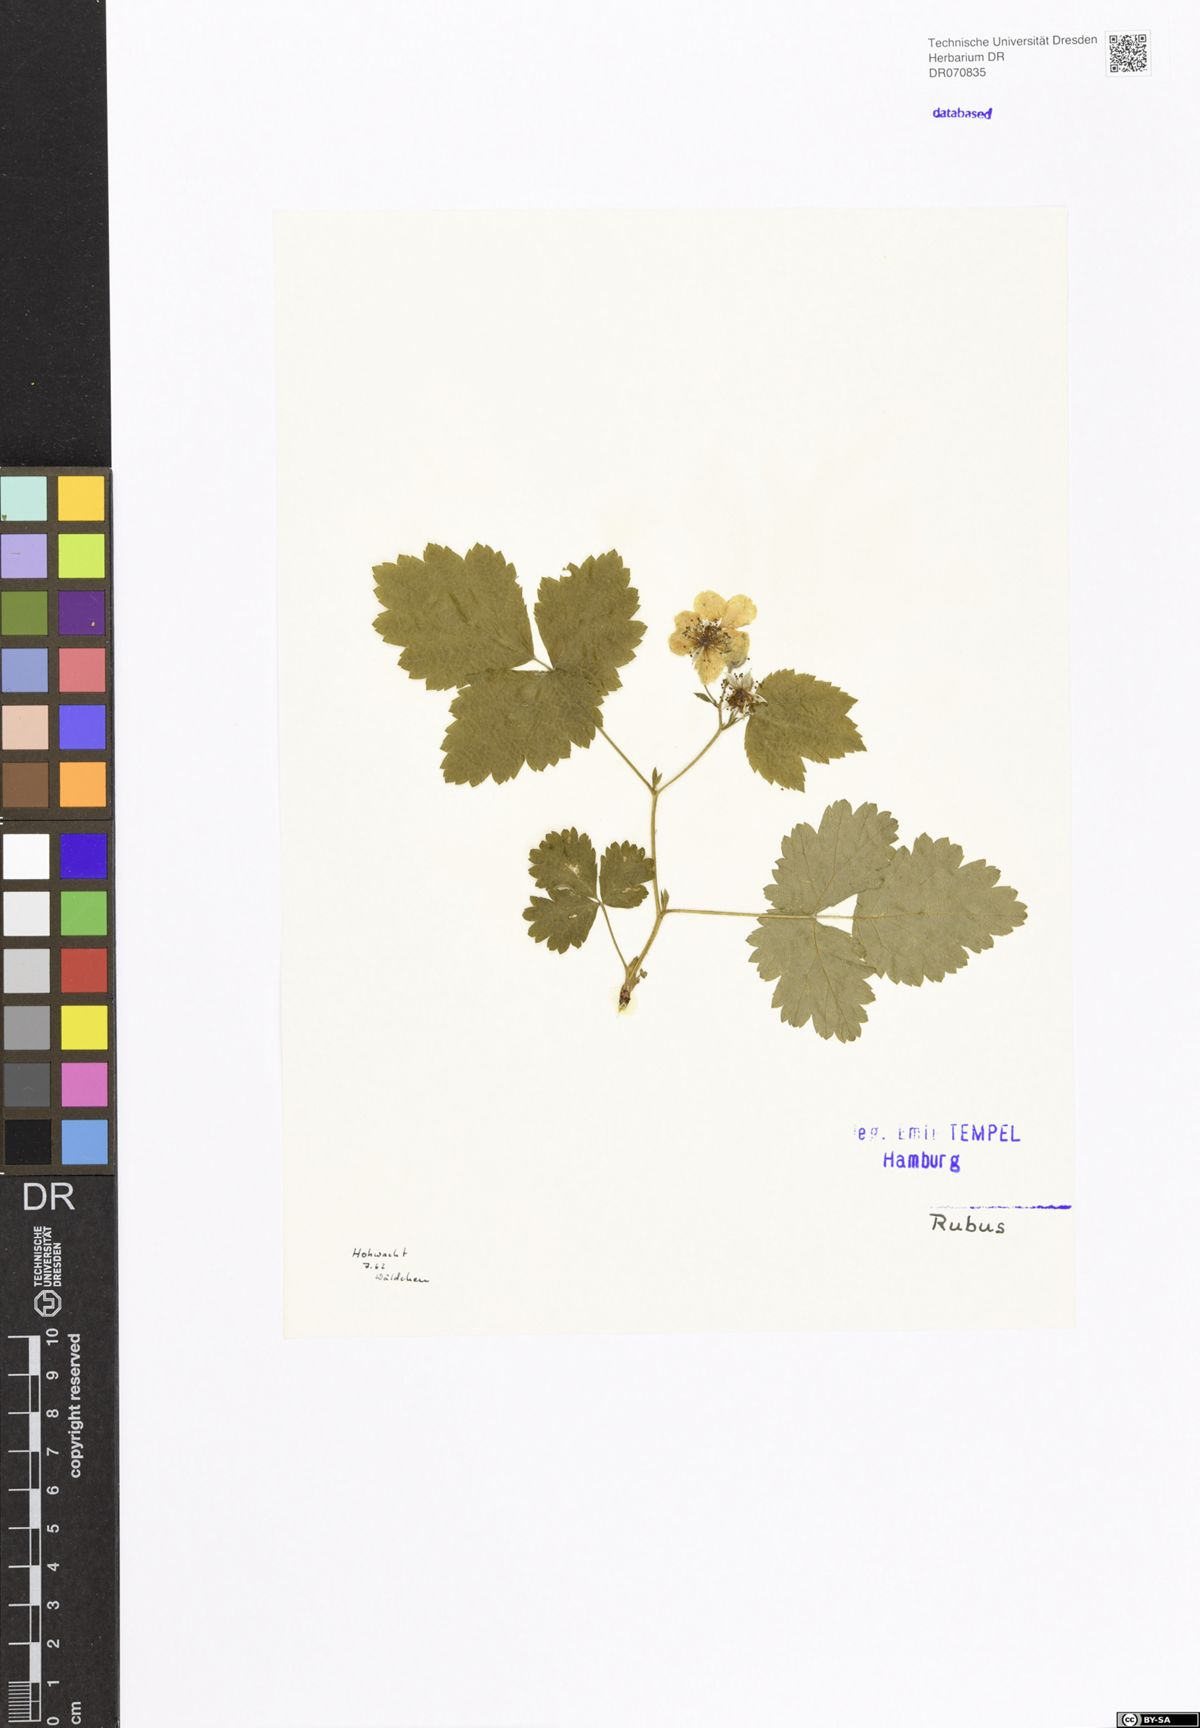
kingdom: Plantae
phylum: Tracheophyta
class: Magnoliopsida
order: Rosales
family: Rosaceae
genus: Rubus
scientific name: Rubus
